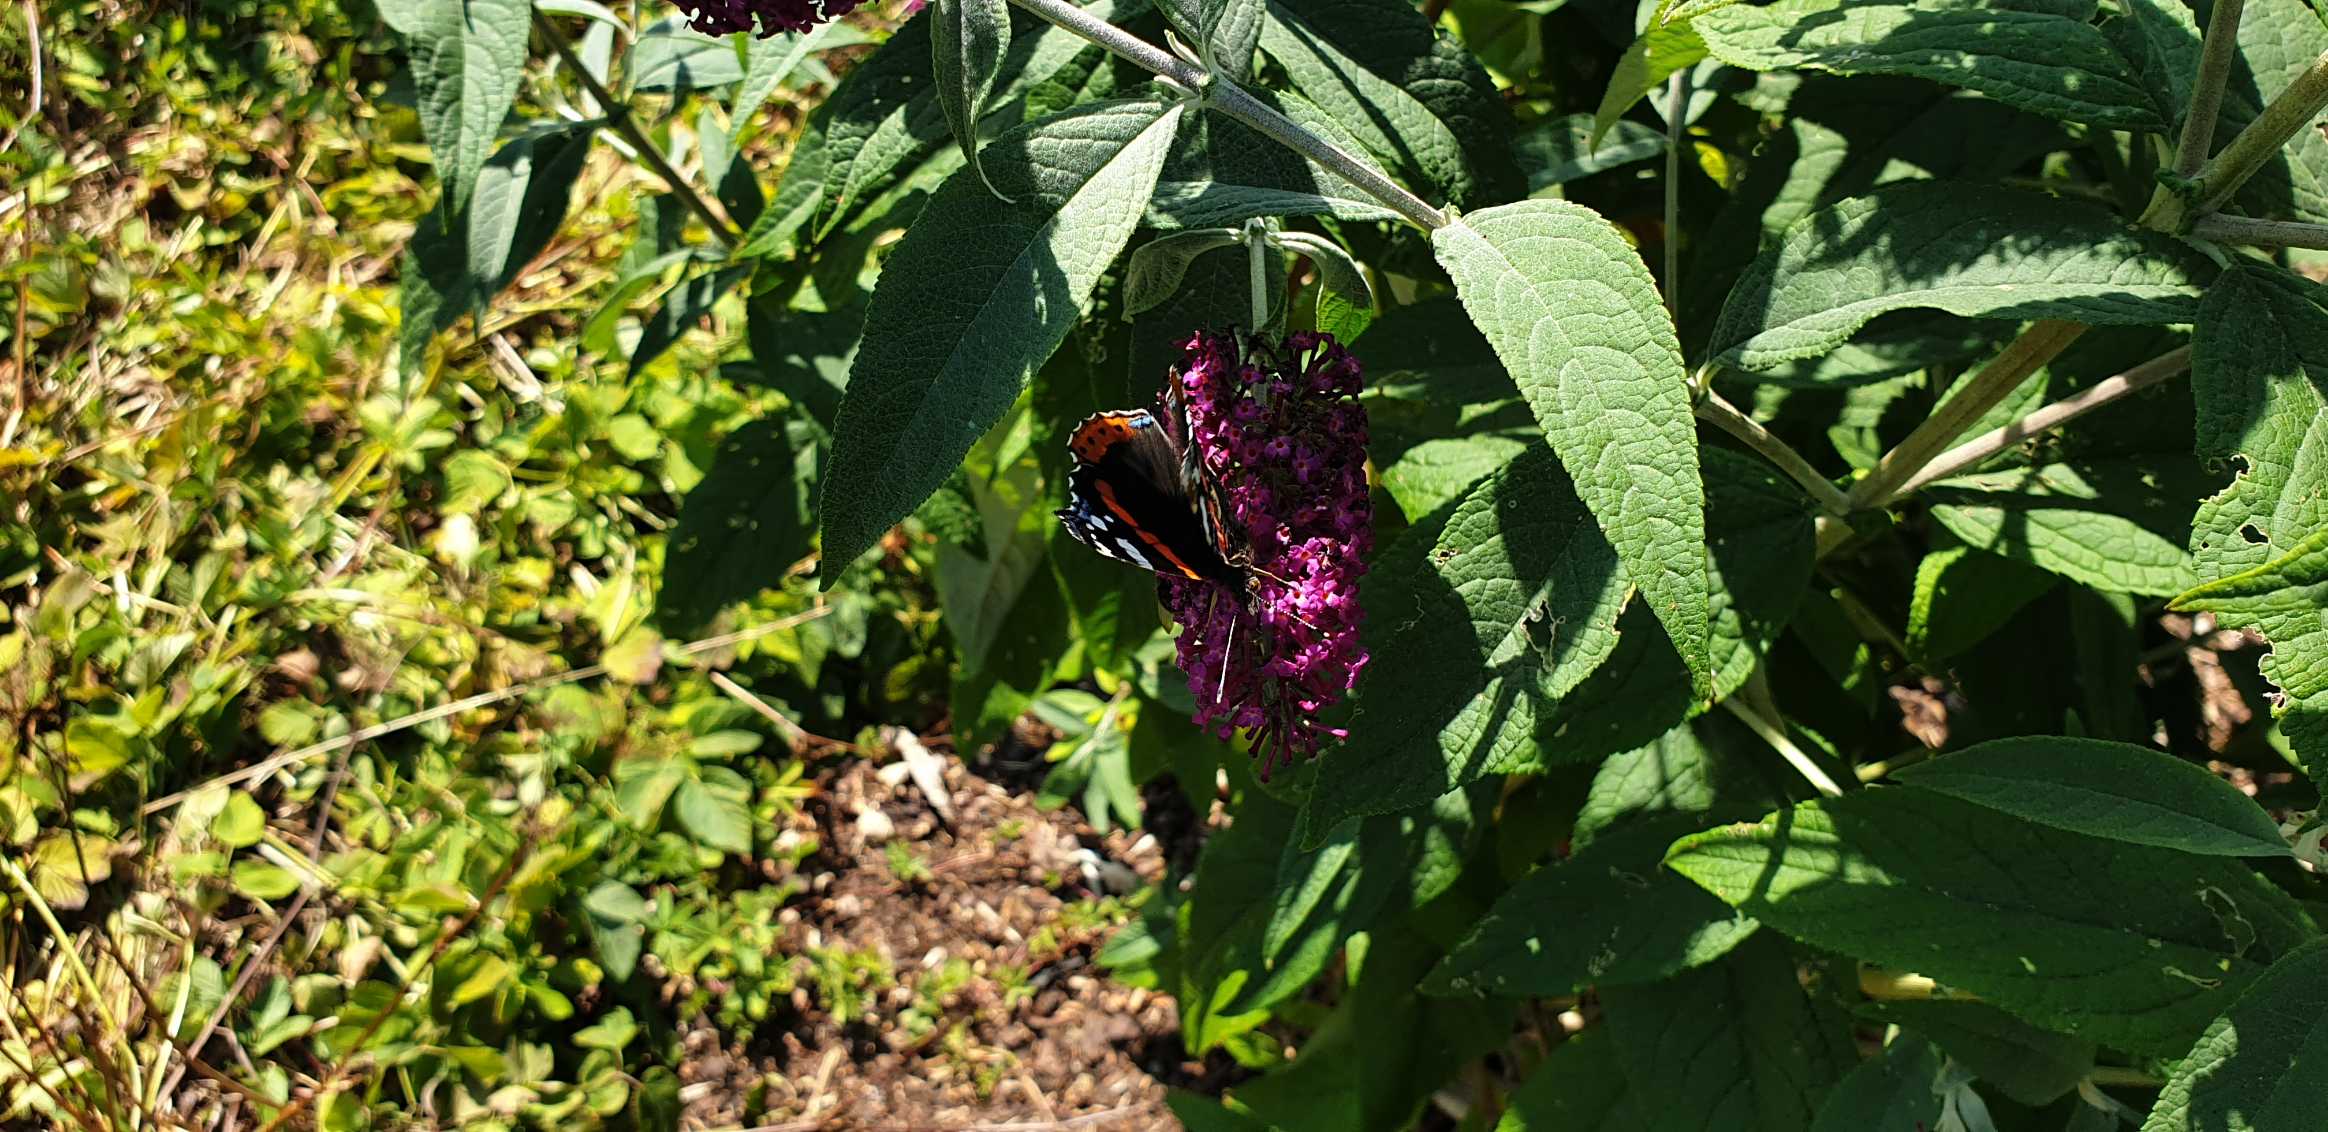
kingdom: Animalia
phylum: Arthropoda
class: Insecta
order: Lepidoptera
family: Nymphalidae
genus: Vanessa
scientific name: Vanessa atalanta
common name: Admiral
